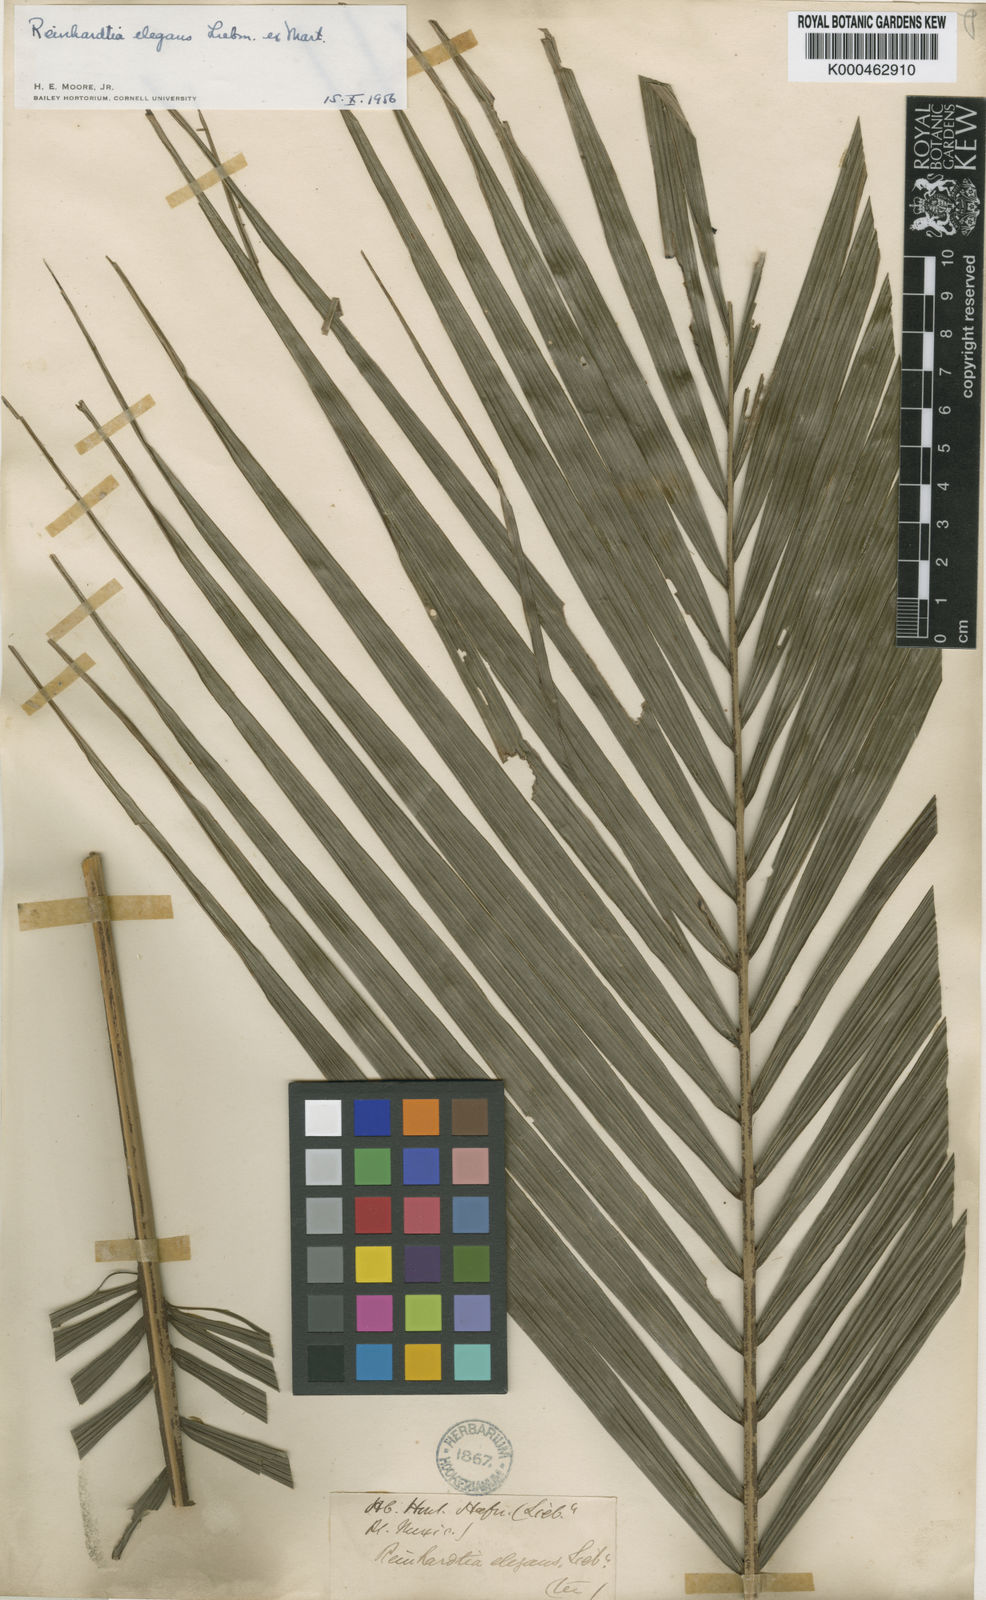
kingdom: Plantae
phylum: Tracheophyta
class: Liliopsida
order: Arecales
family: Arecaceae
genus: Reinhardtia
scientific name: Reinhardtia elegans
